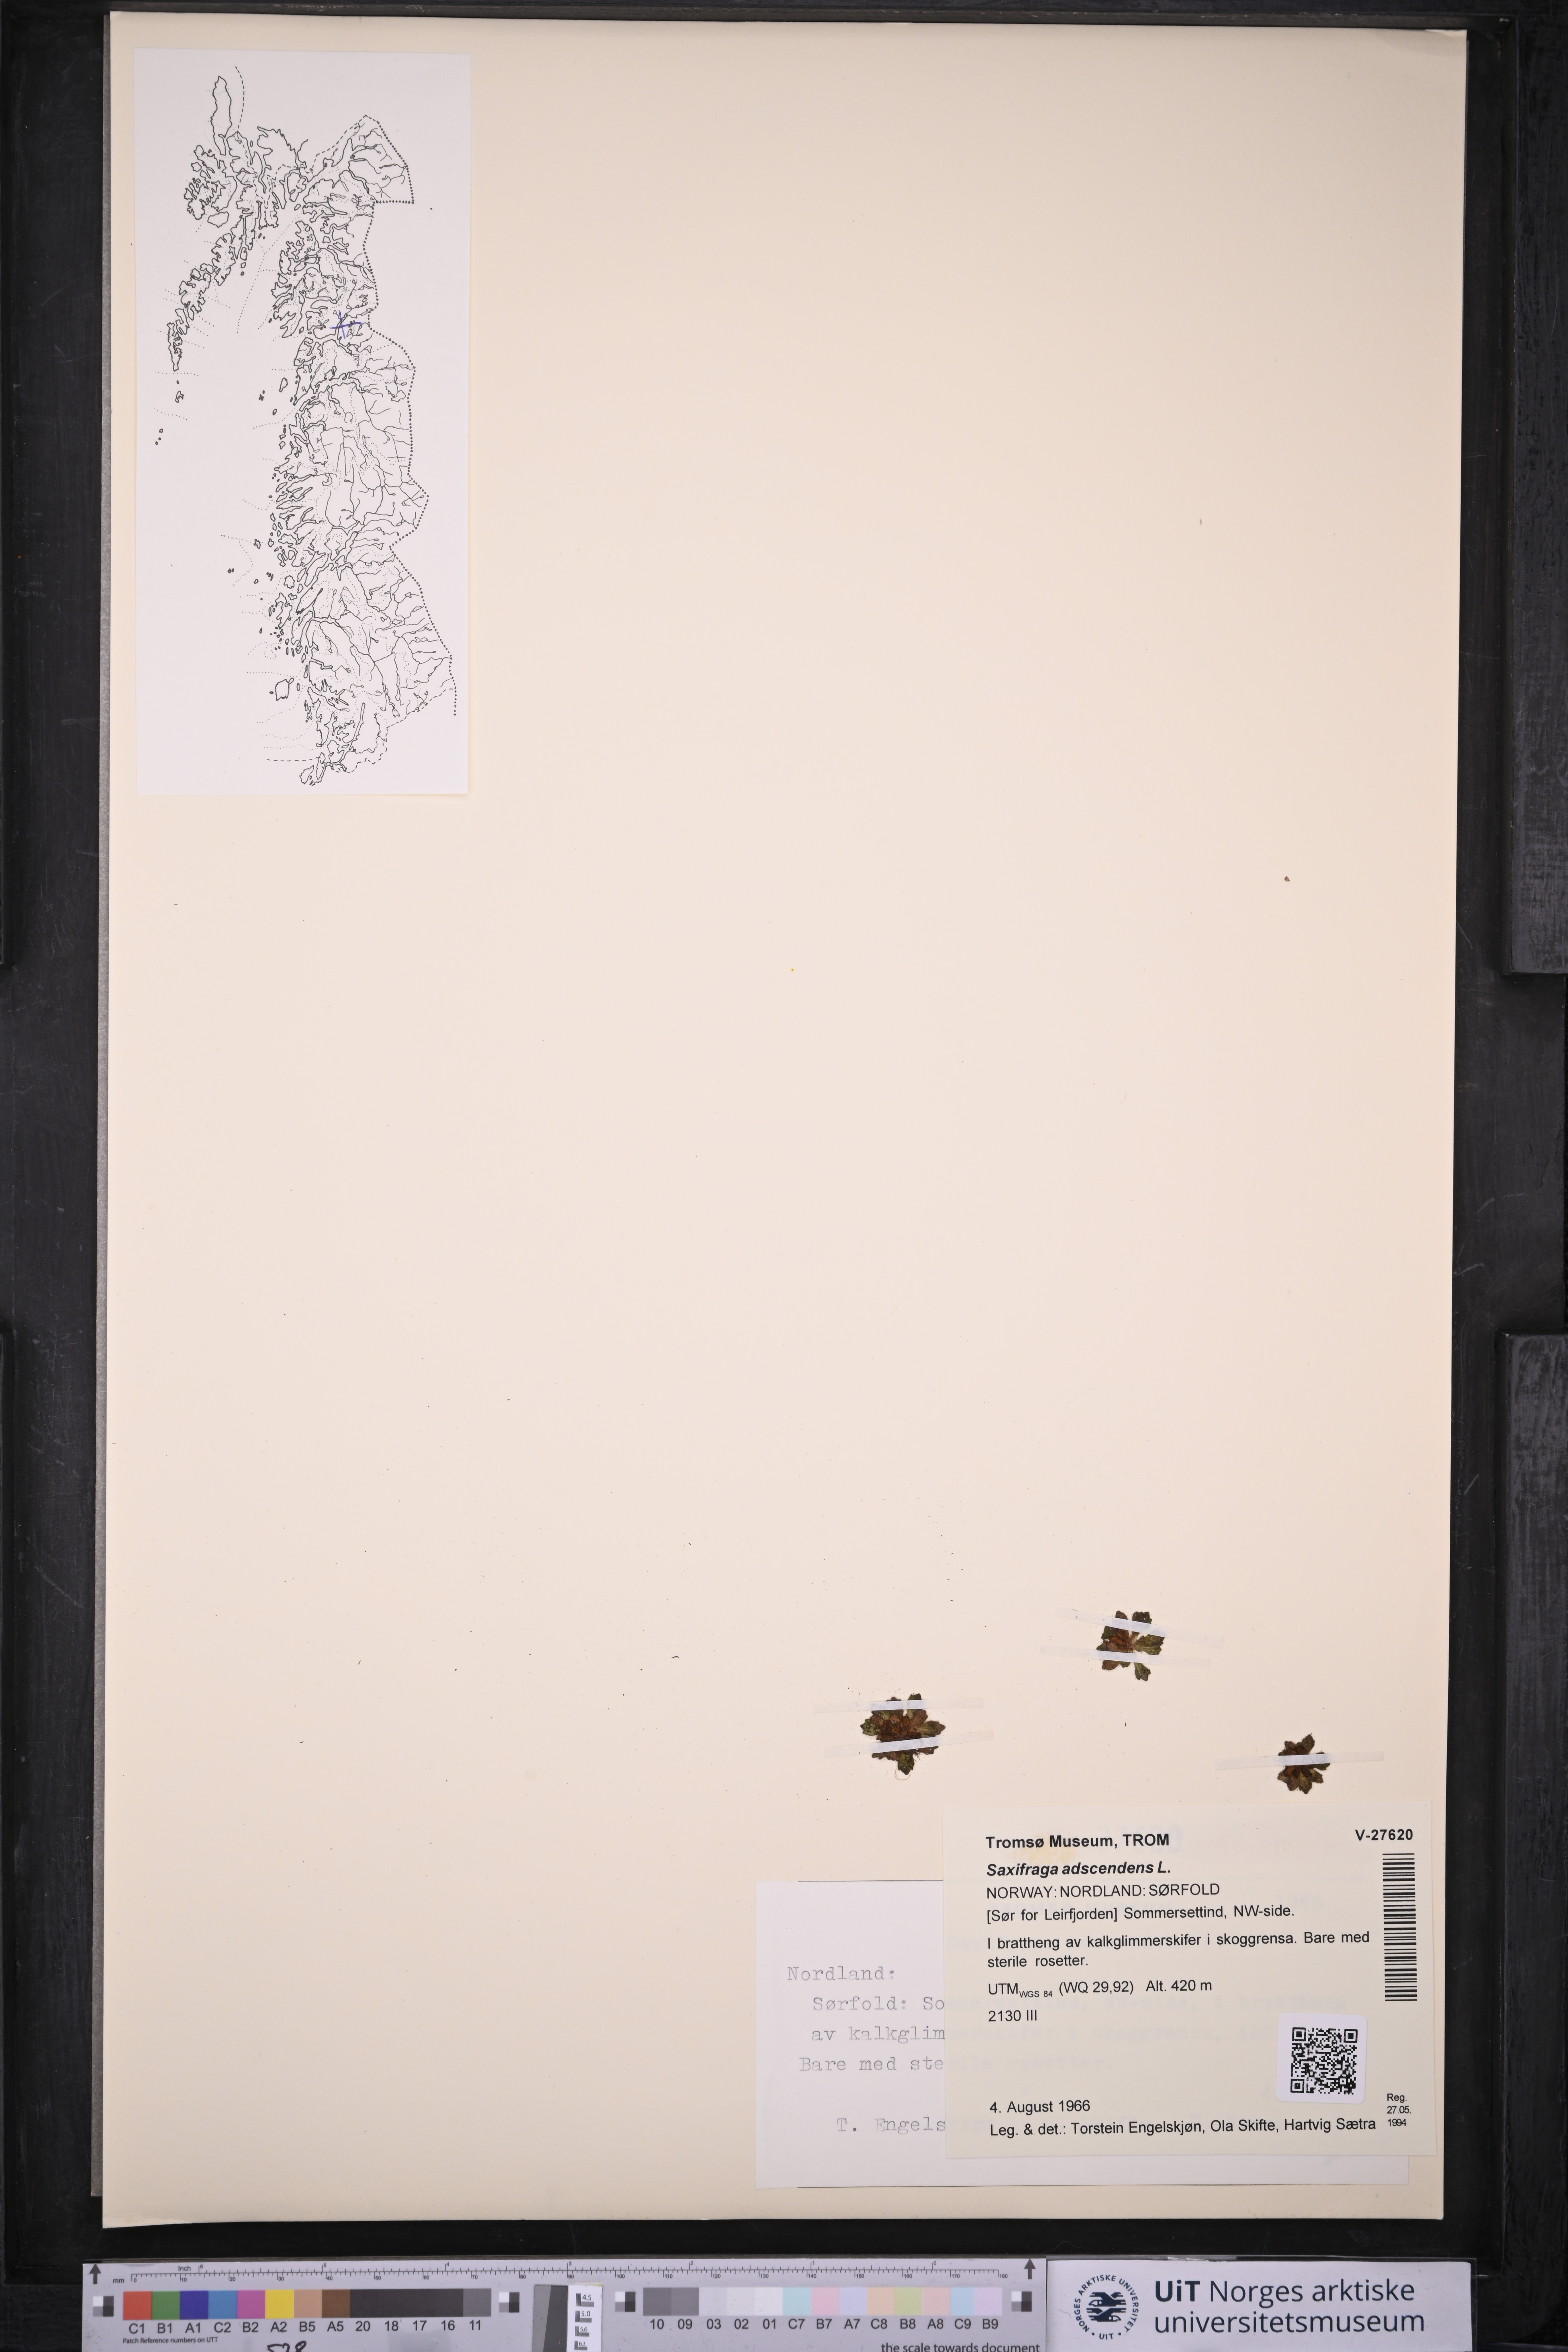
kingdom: Plantae
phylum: Tracheophyta
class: Magnoliopsida
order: Saxifragales
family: Saxifragaceae
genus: Saxifraga
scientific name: Saxifraga adscendens
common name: Ascending saxifrage
